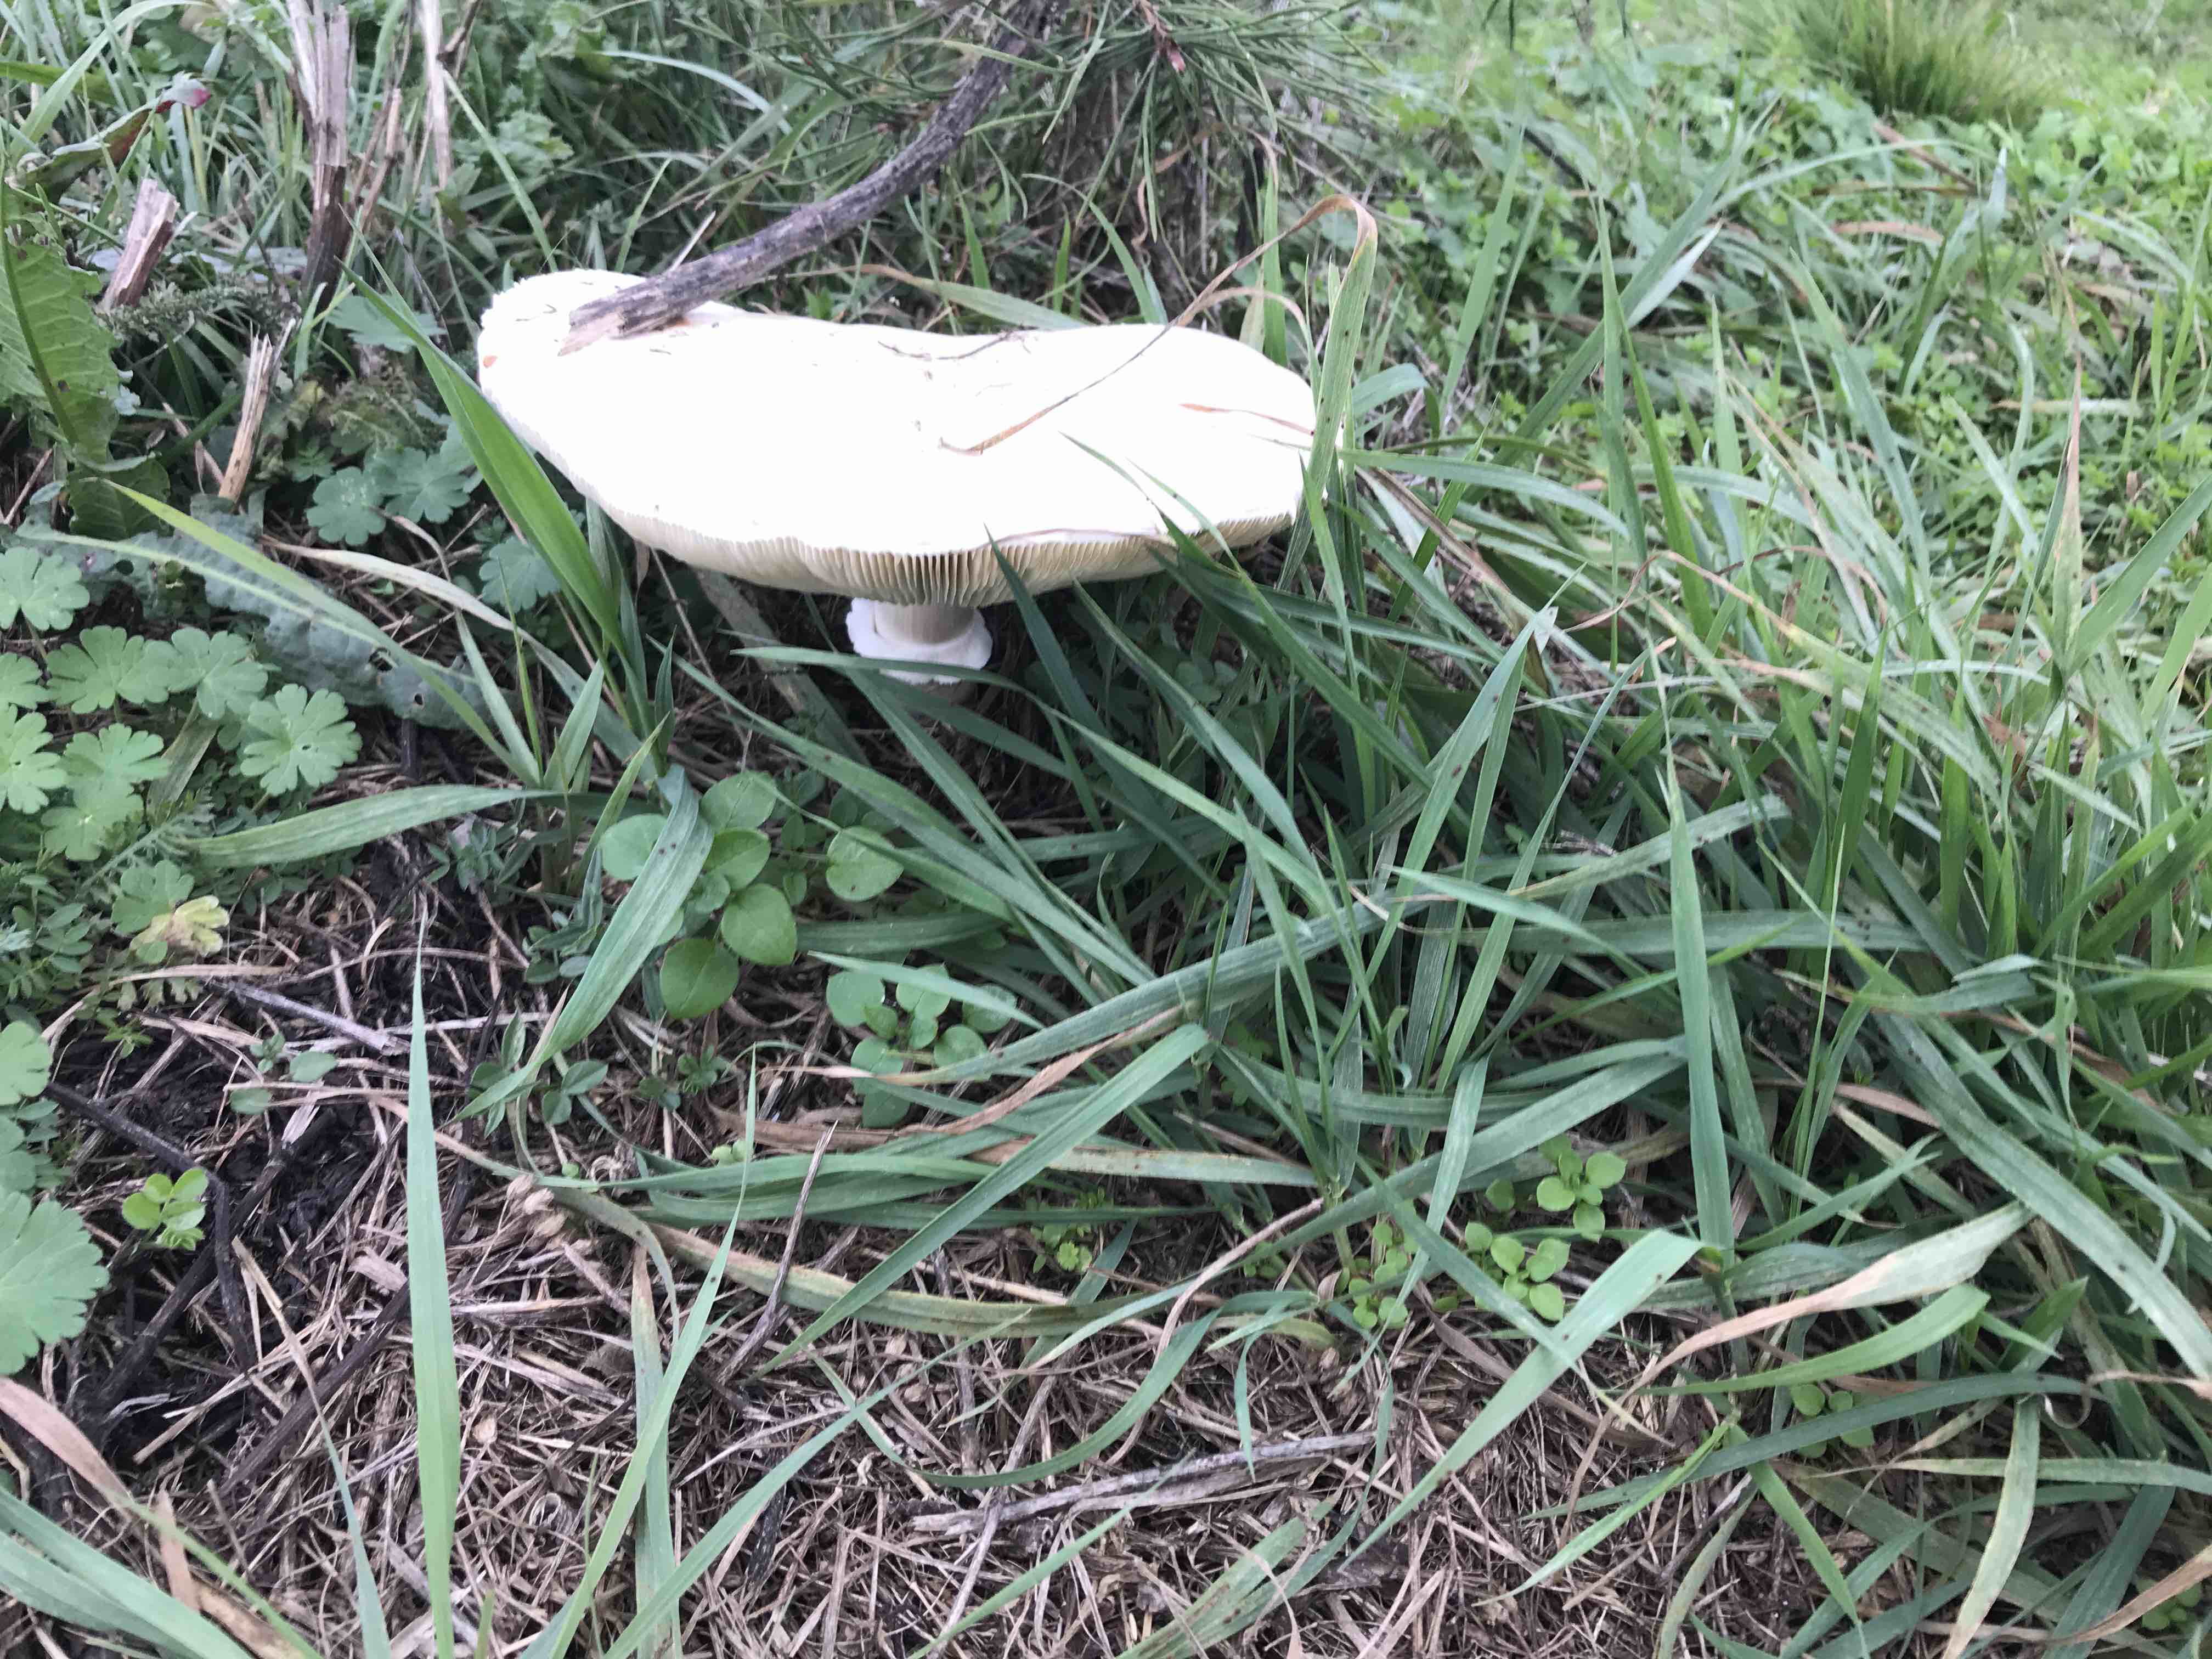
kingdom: Fungi
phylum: Basidiomycota
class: Agaricomycetes
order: Agaricales
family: Agaricaceae
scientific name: Agaricaceae
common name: champignonfamilien
